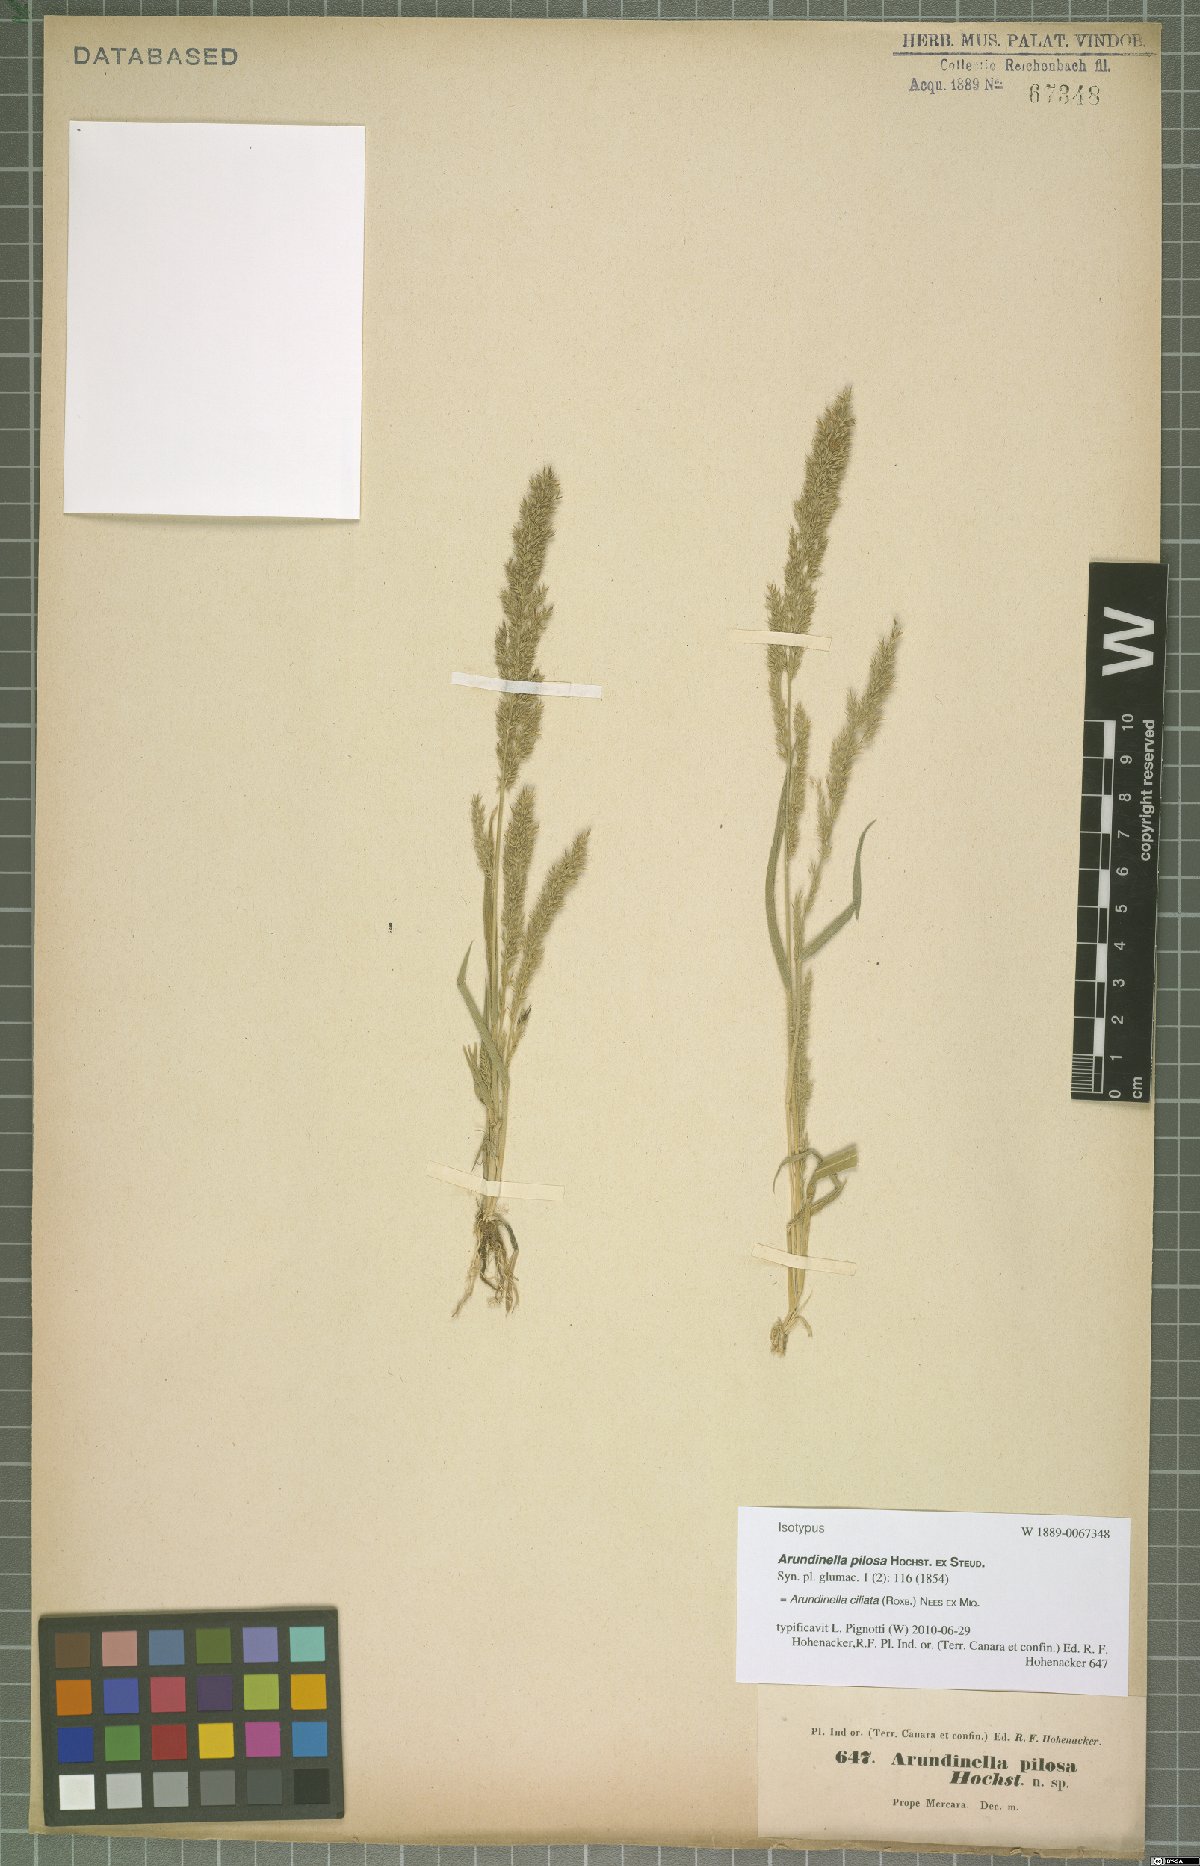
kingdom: Plantae
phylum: Tracheophyta
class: Liliopsida
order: Poales
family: Poaceae
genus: Arundinella
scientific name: Arundinella ciliata
